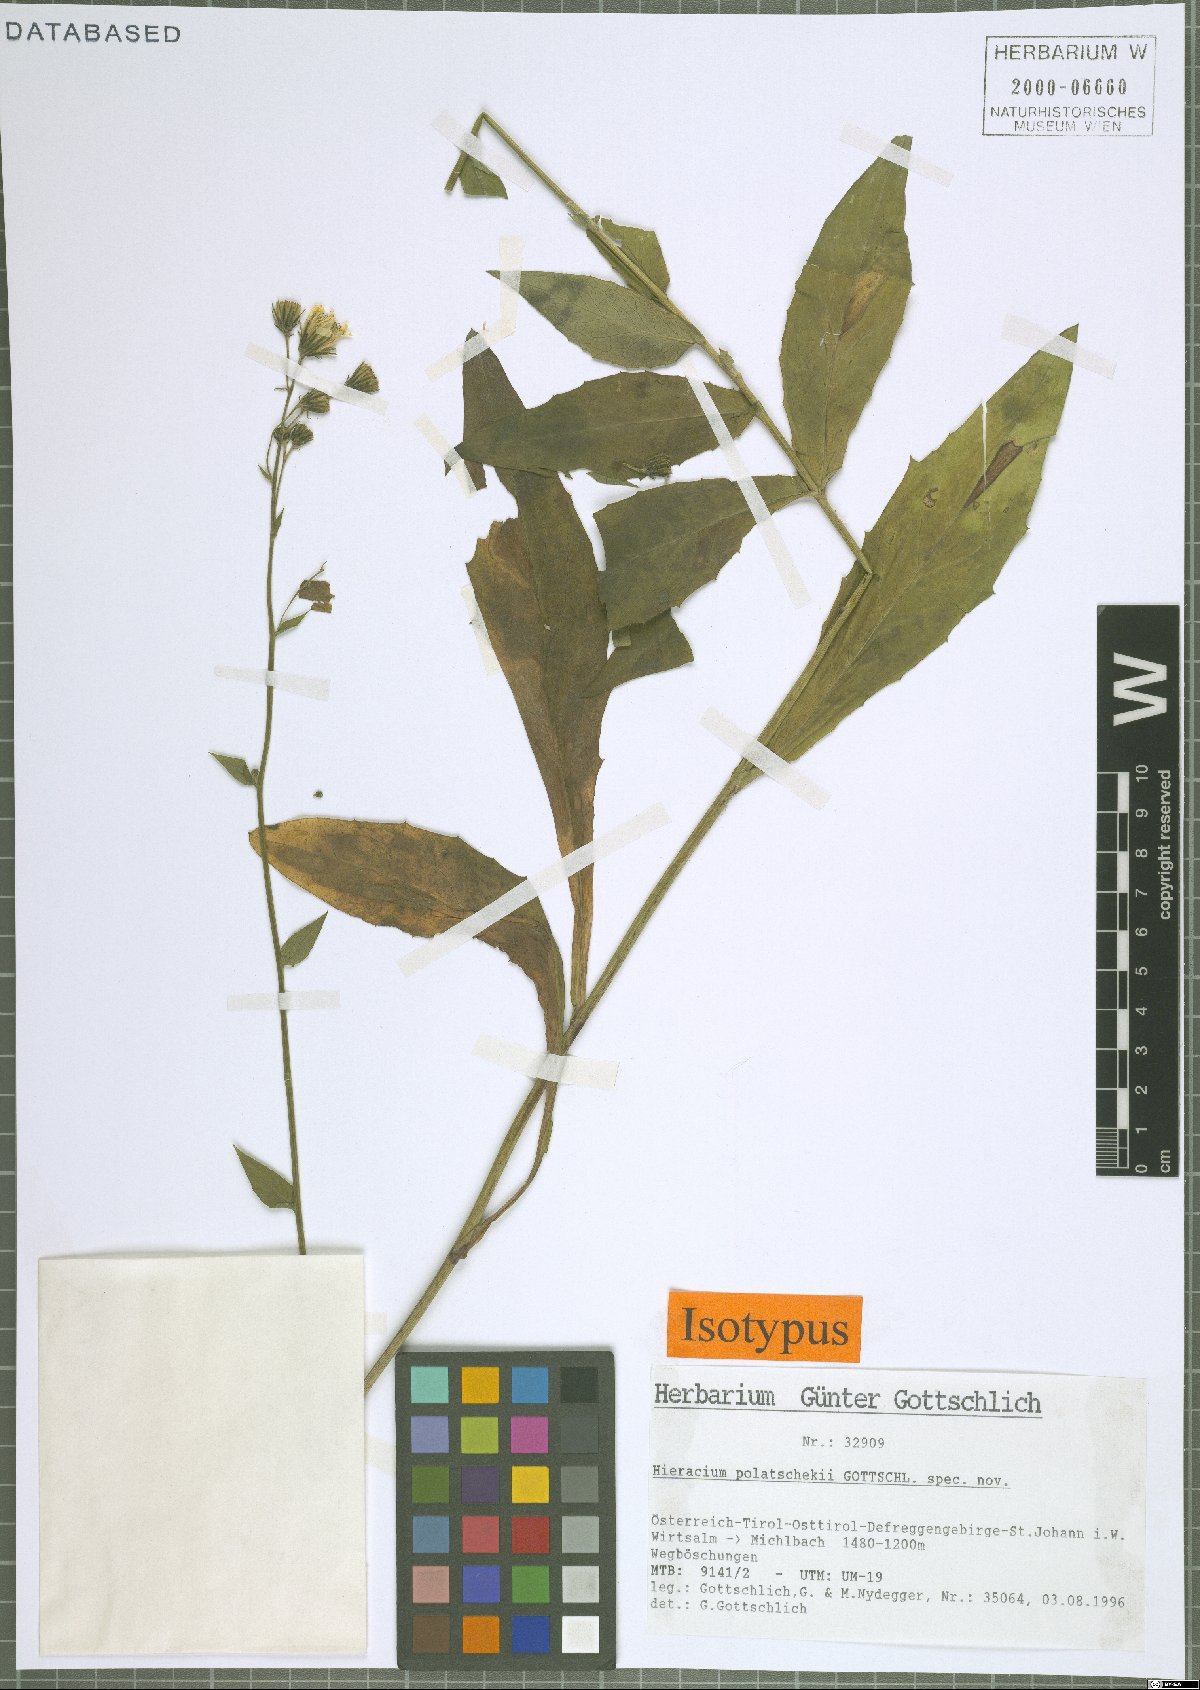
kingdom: Plantae
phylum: Tracheophyta
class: Magnoliopsida
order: Asterales
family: Asteraceae
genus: Hieracium
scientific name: Hieracium polatschekii
